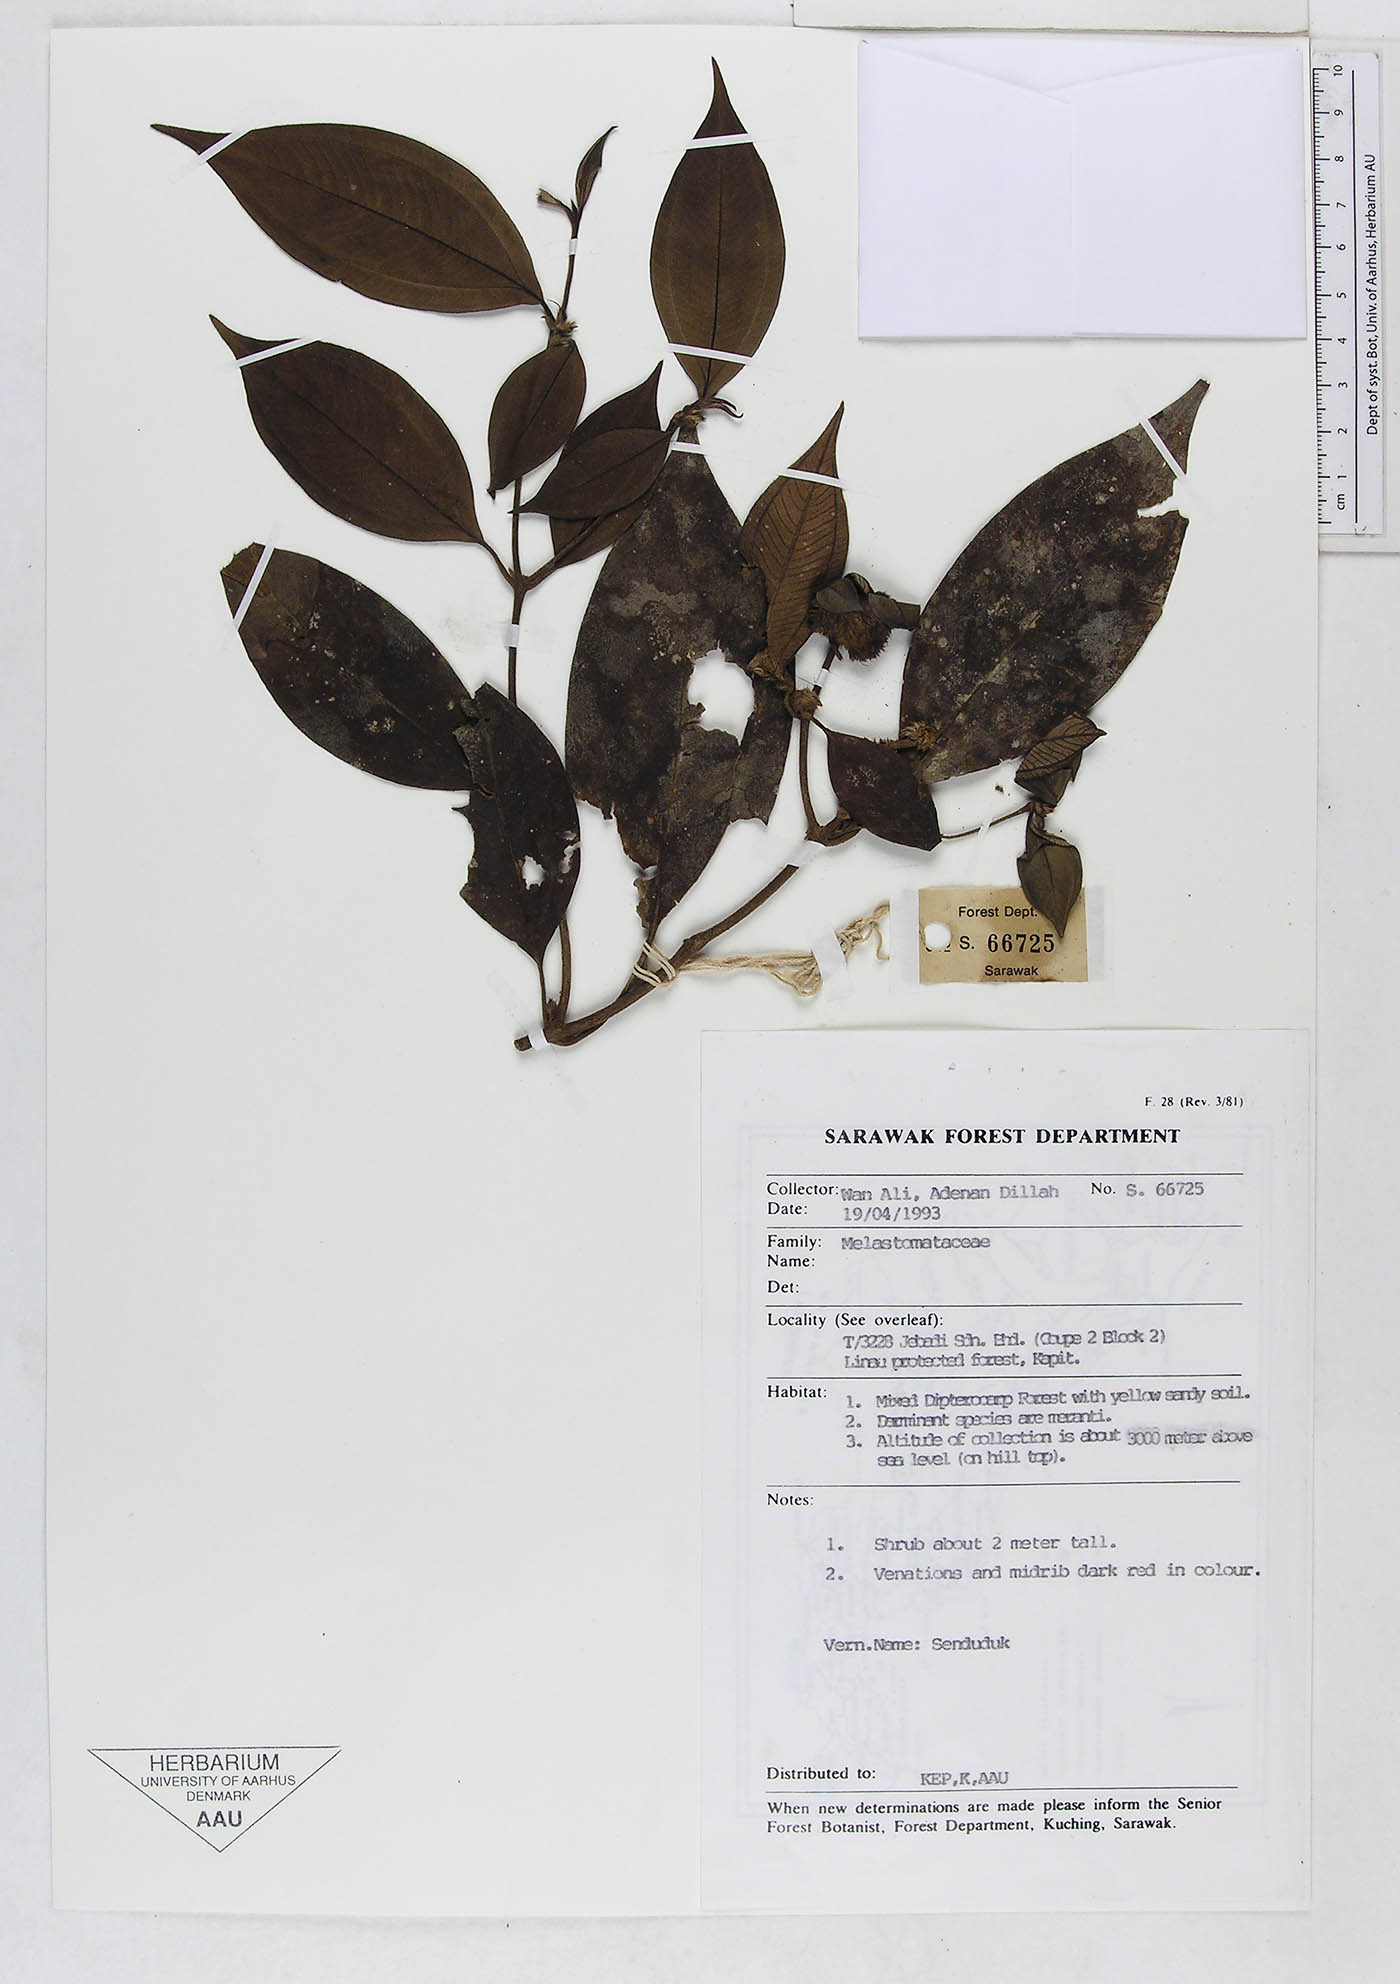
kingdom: Plantae
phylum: Tracheophyta
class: Magnoliopsida
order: Myrtales
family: Melastomataceae
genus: Melastoma
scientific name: Melastoma
